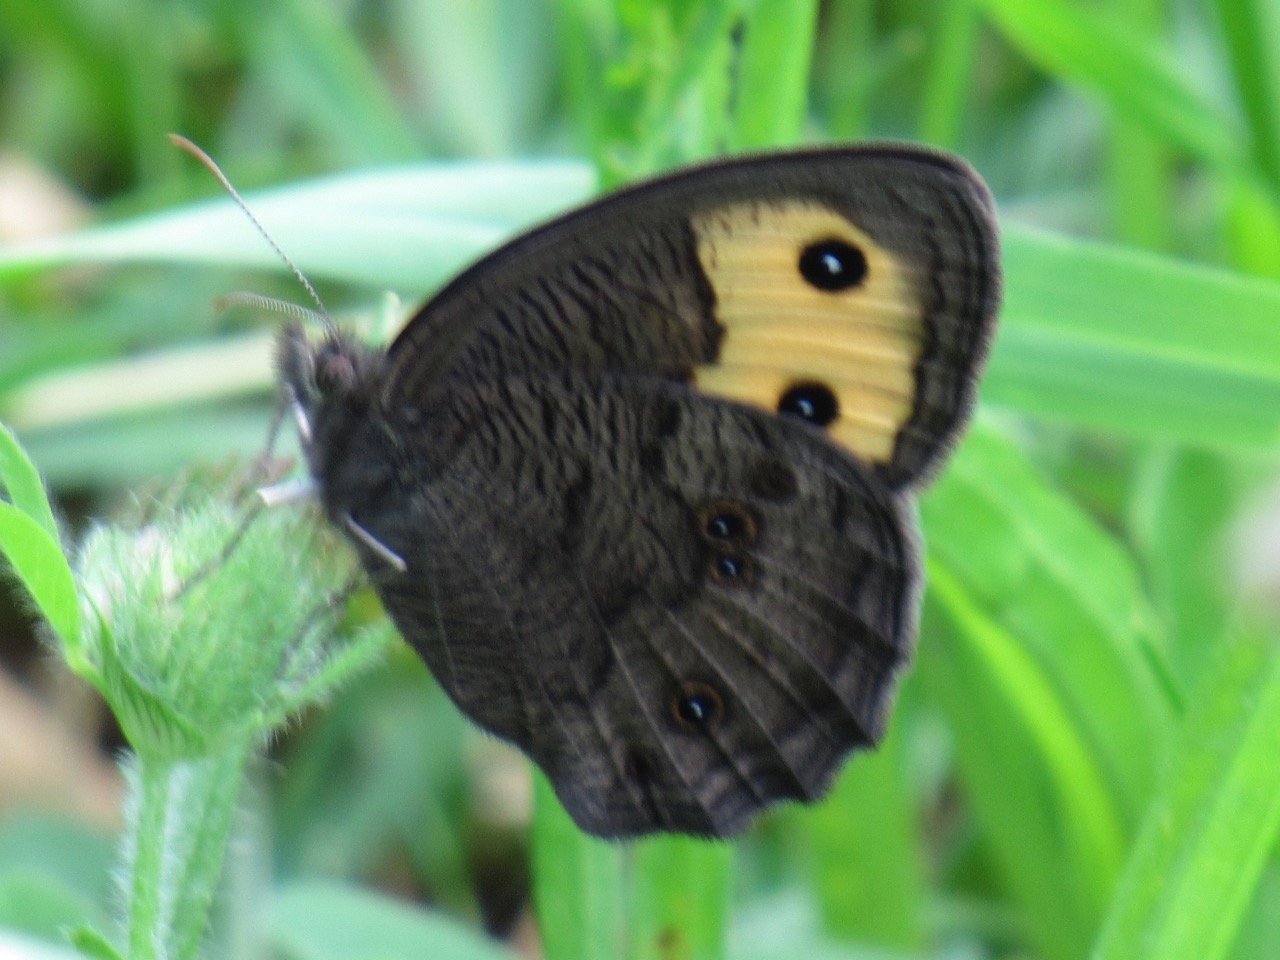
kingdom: Animalia
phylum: Arthropoda
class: Insecta
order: Lepidoptera
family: Nymphalidae
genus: Cercyonis
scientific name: Cercyonis pegala
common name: Common Wood-Nymph
